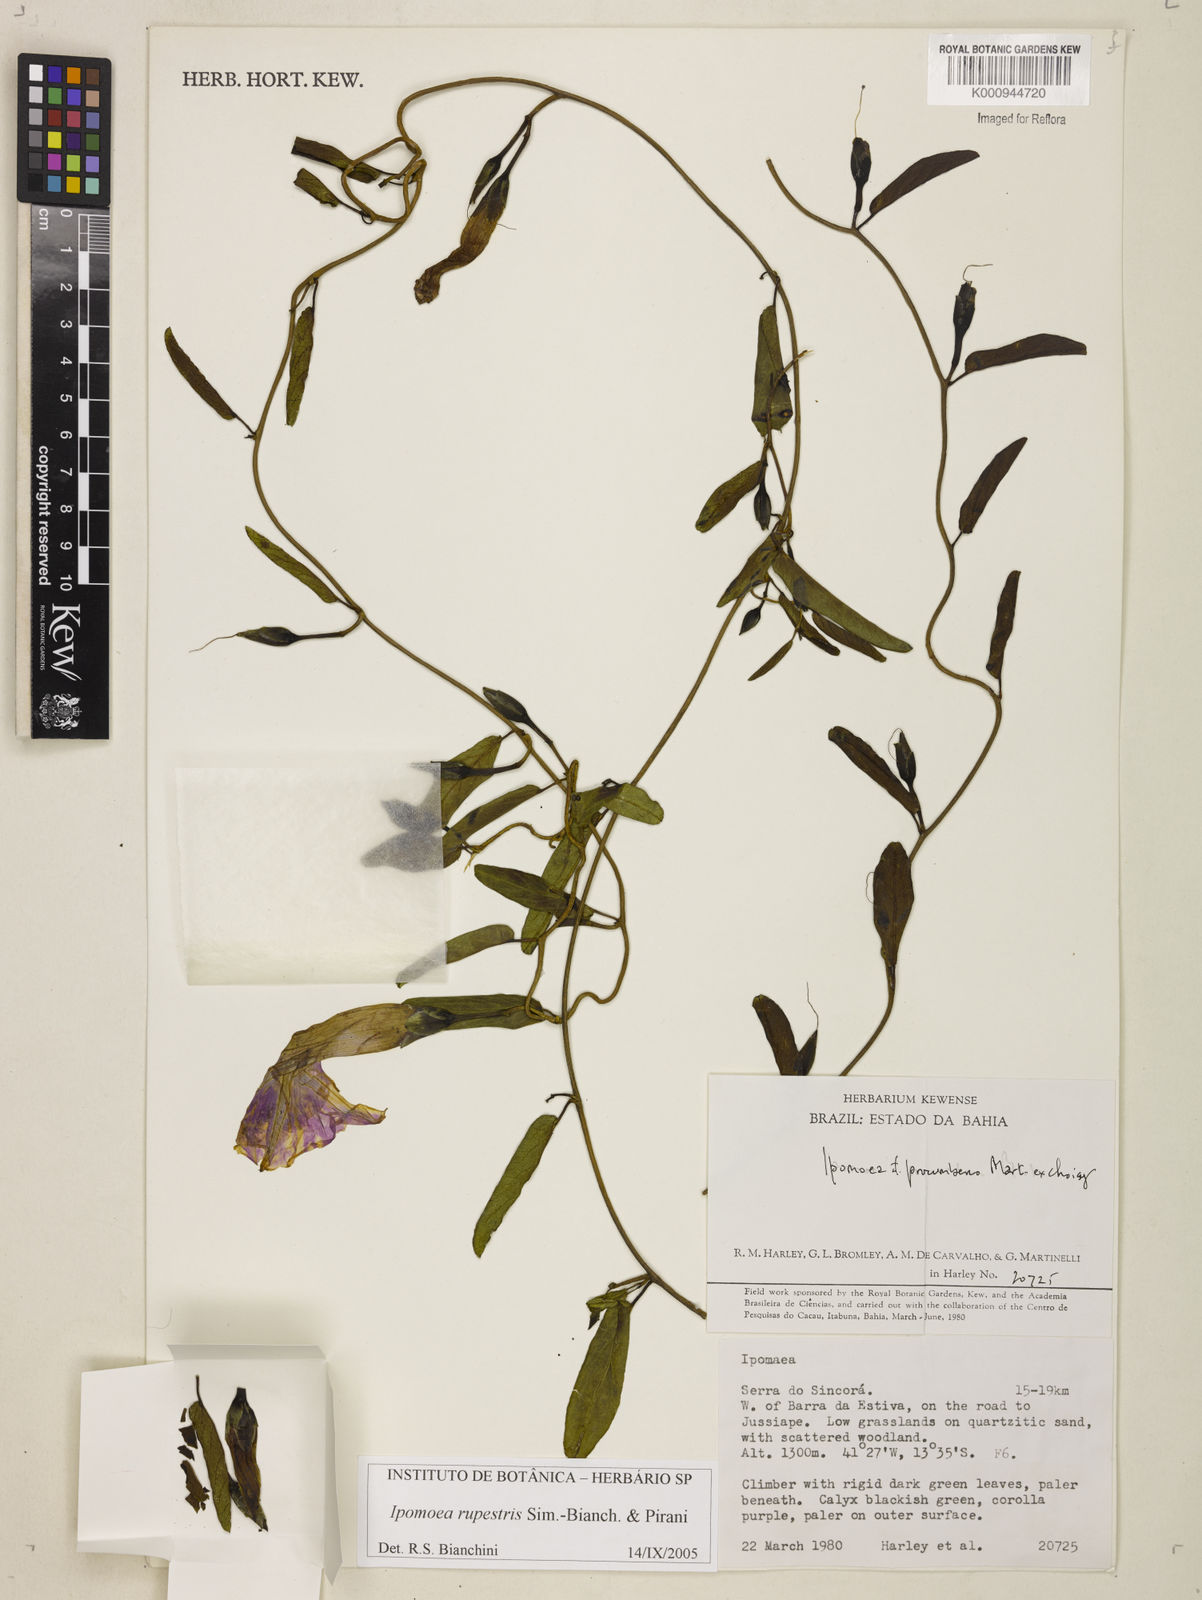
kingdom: Plantae
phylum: Tracheophyta
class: Magnoliopsida
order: Solanales
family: Convolvulaceae
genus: Ipomoea
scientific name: Ipomoea rupestris
